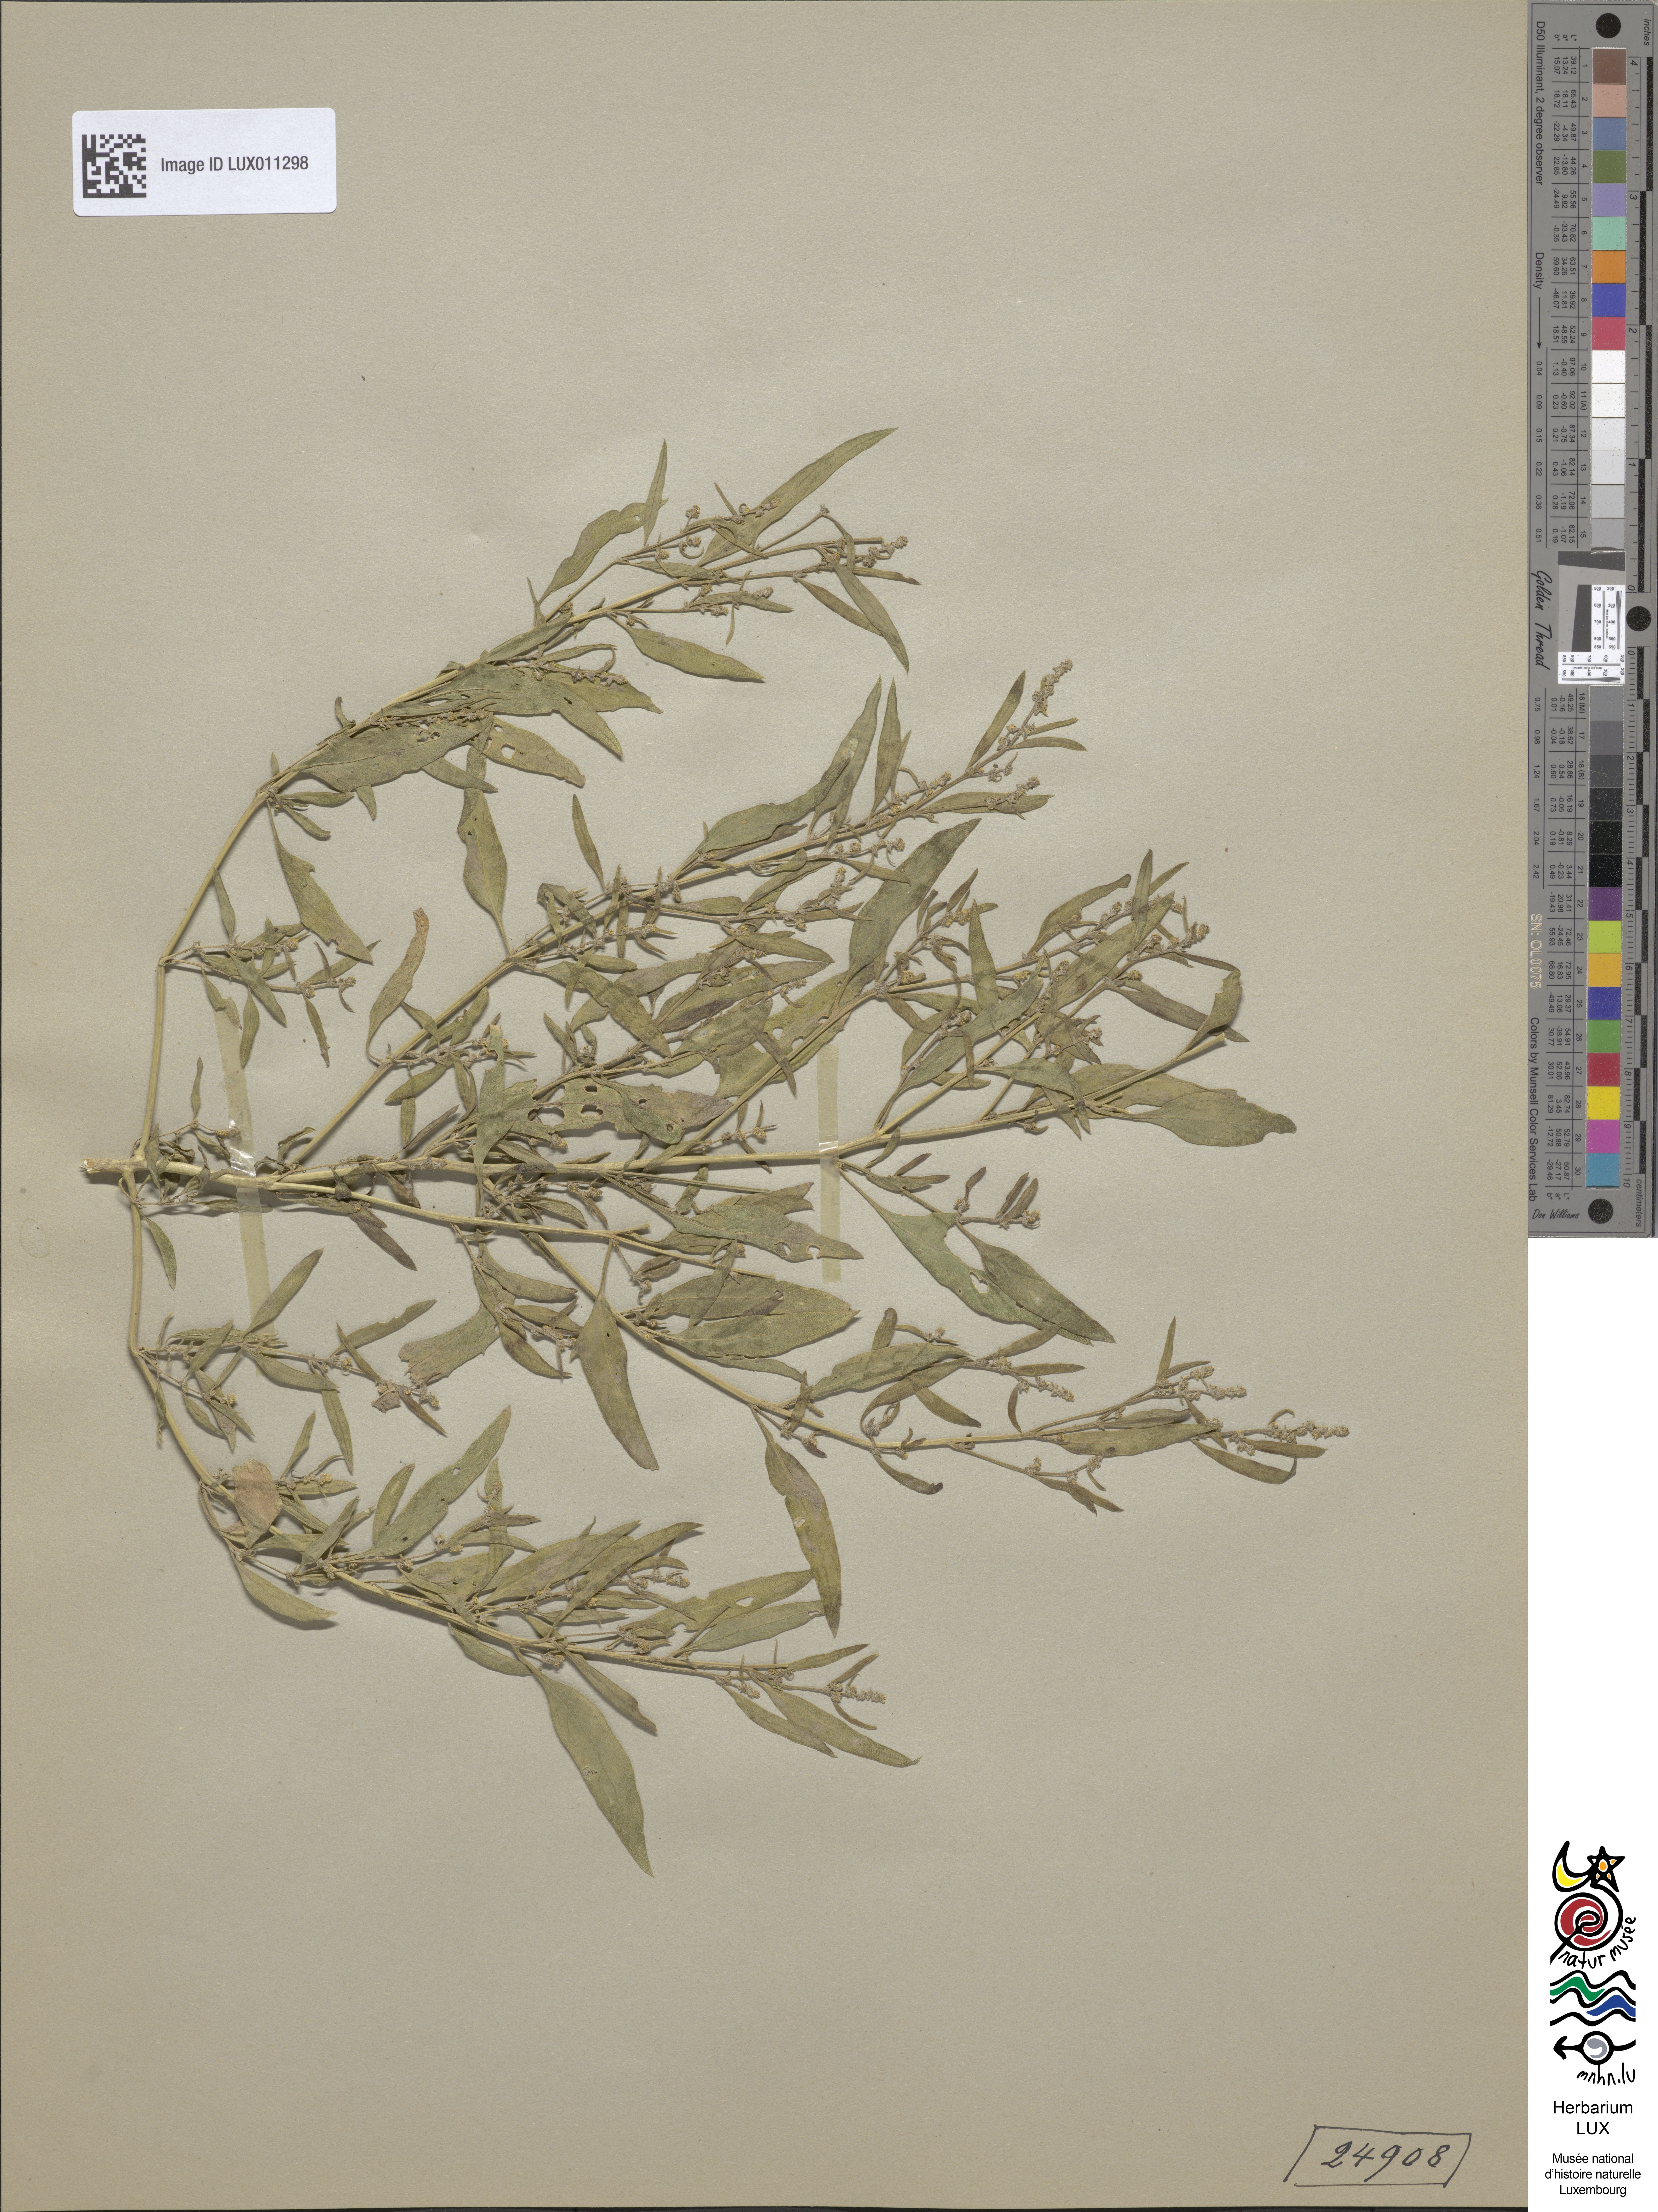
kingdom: Plantae
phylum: Tracheophyta
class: Magnoliopsida
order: Caryophyllales
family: Amaranthaceae
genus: Atriplex
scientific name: Atriplex patula
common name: Common orache
